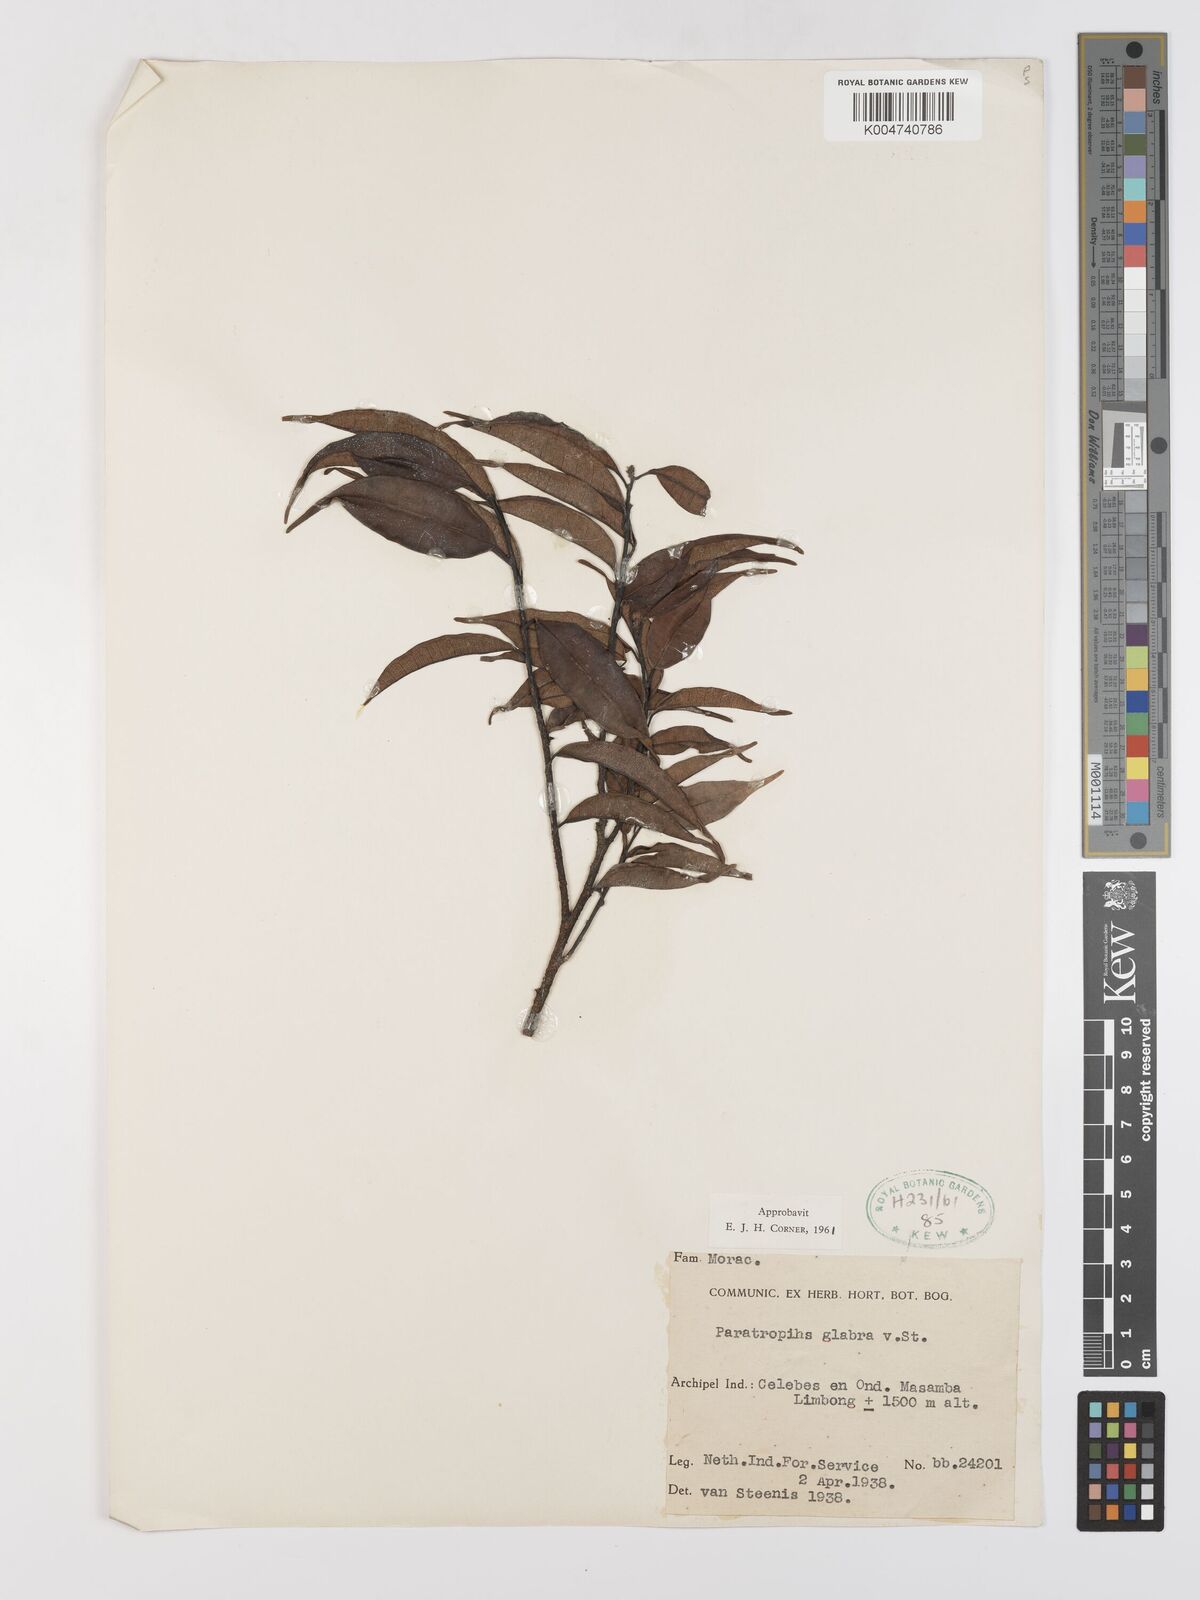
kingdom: Plantae
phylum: Tracheophyta
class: Magnoliopsida
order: Rosales
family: Moraceae
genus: Paratrophis
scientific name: Paratrophis glabra
